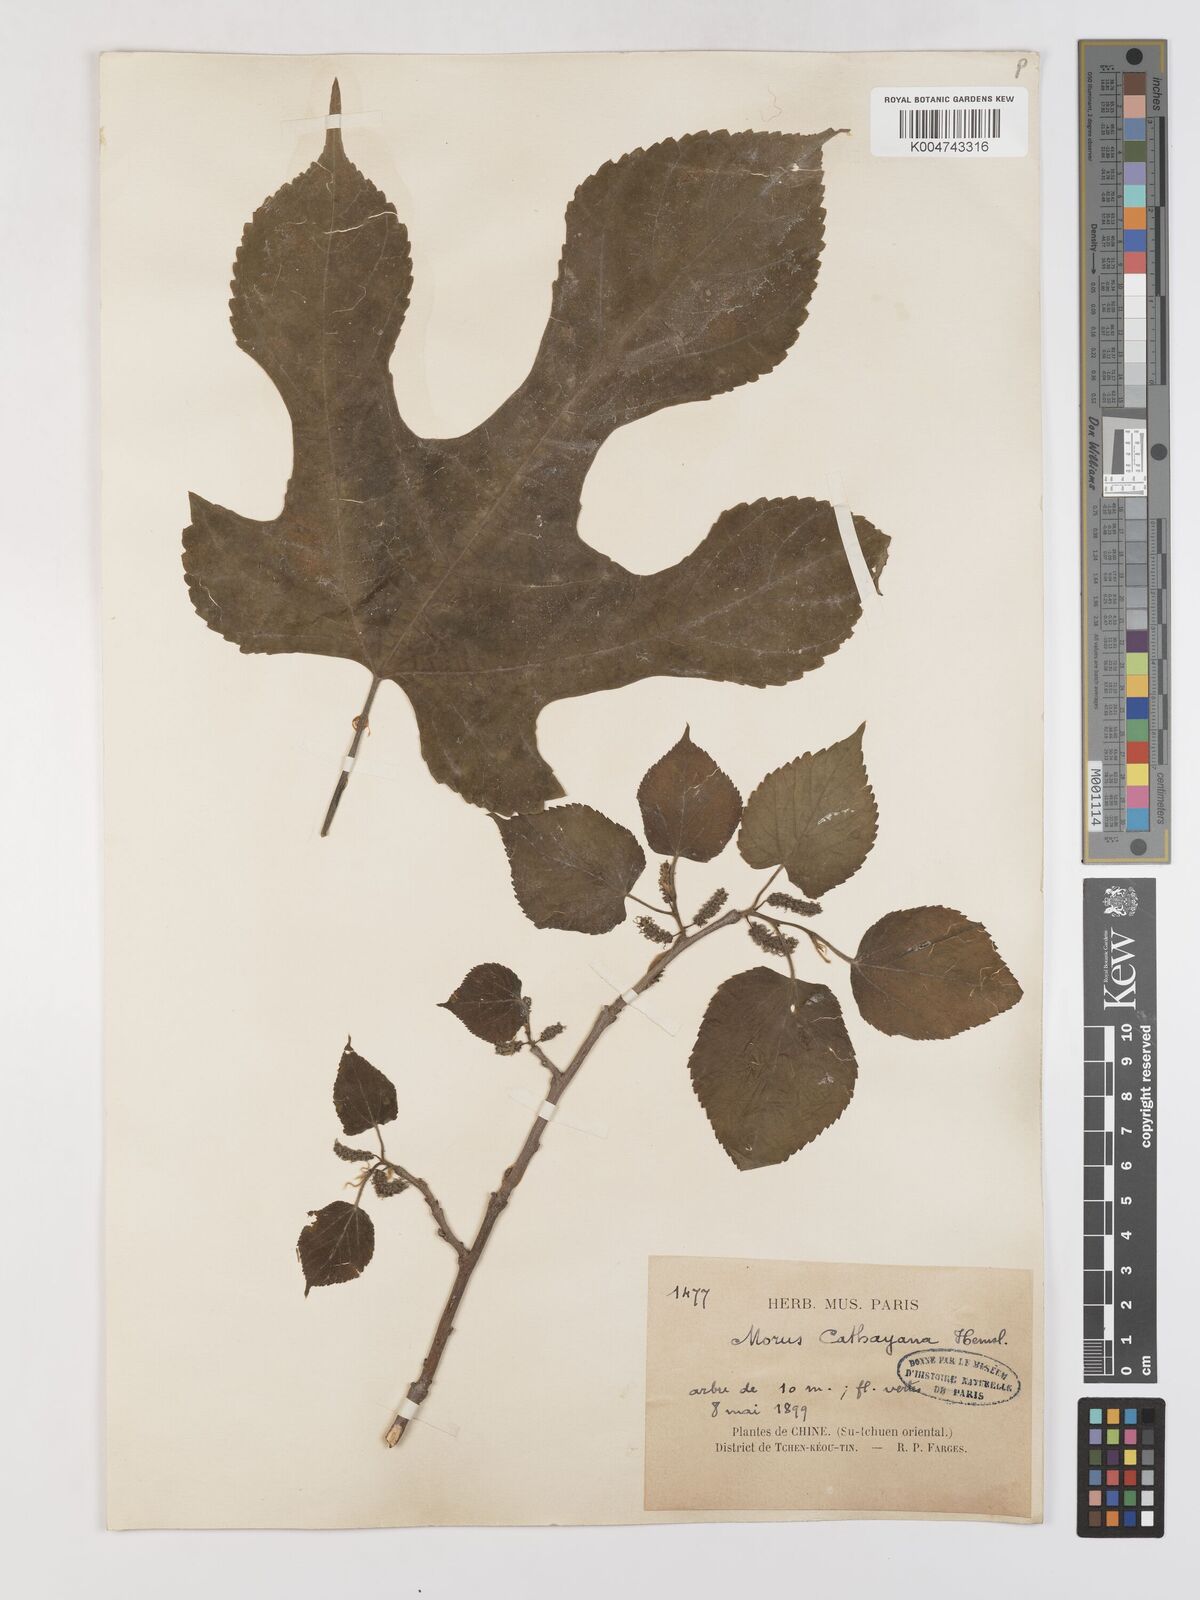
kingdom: Plantae
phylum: Tracheophyta
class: Magnoliopsida
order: Rosales
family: Moraceae
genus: Morus
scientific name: Morus cathayana
